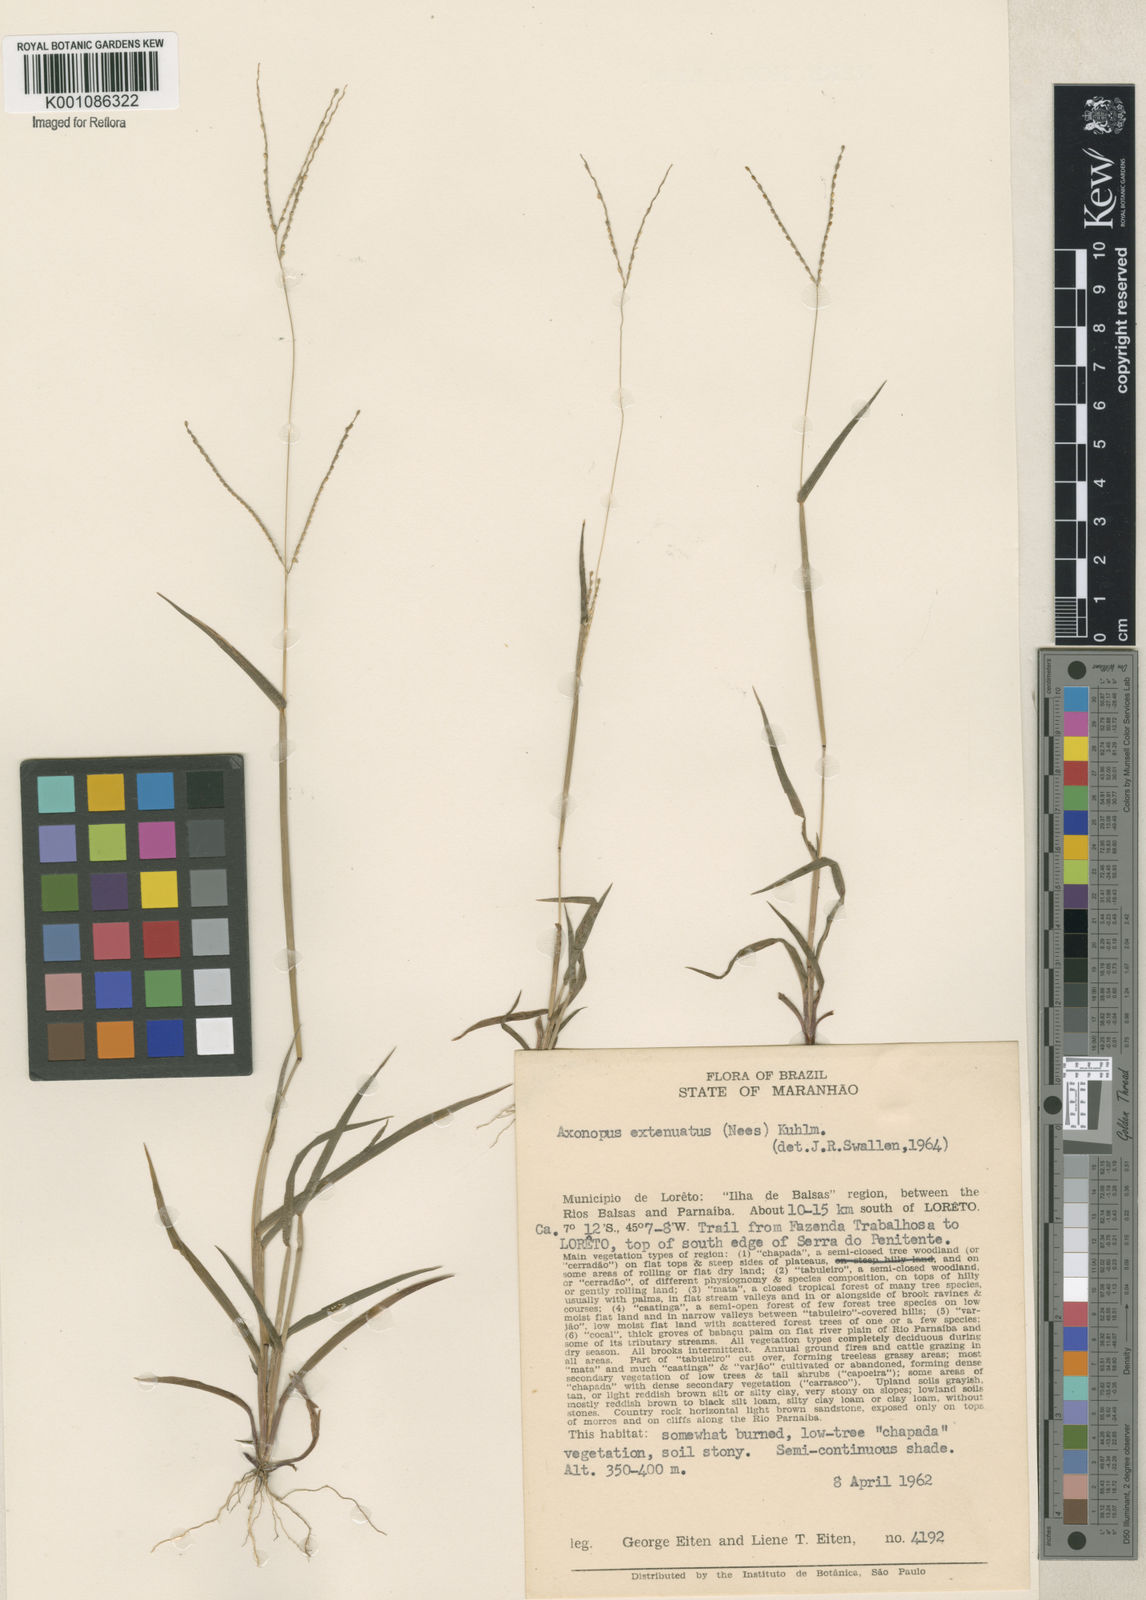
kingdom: Plantae
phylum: Tracheophyta
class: Liliopsida
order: Poales
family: Poaceae
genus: Axonopus
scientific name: Axonopus capillaris
